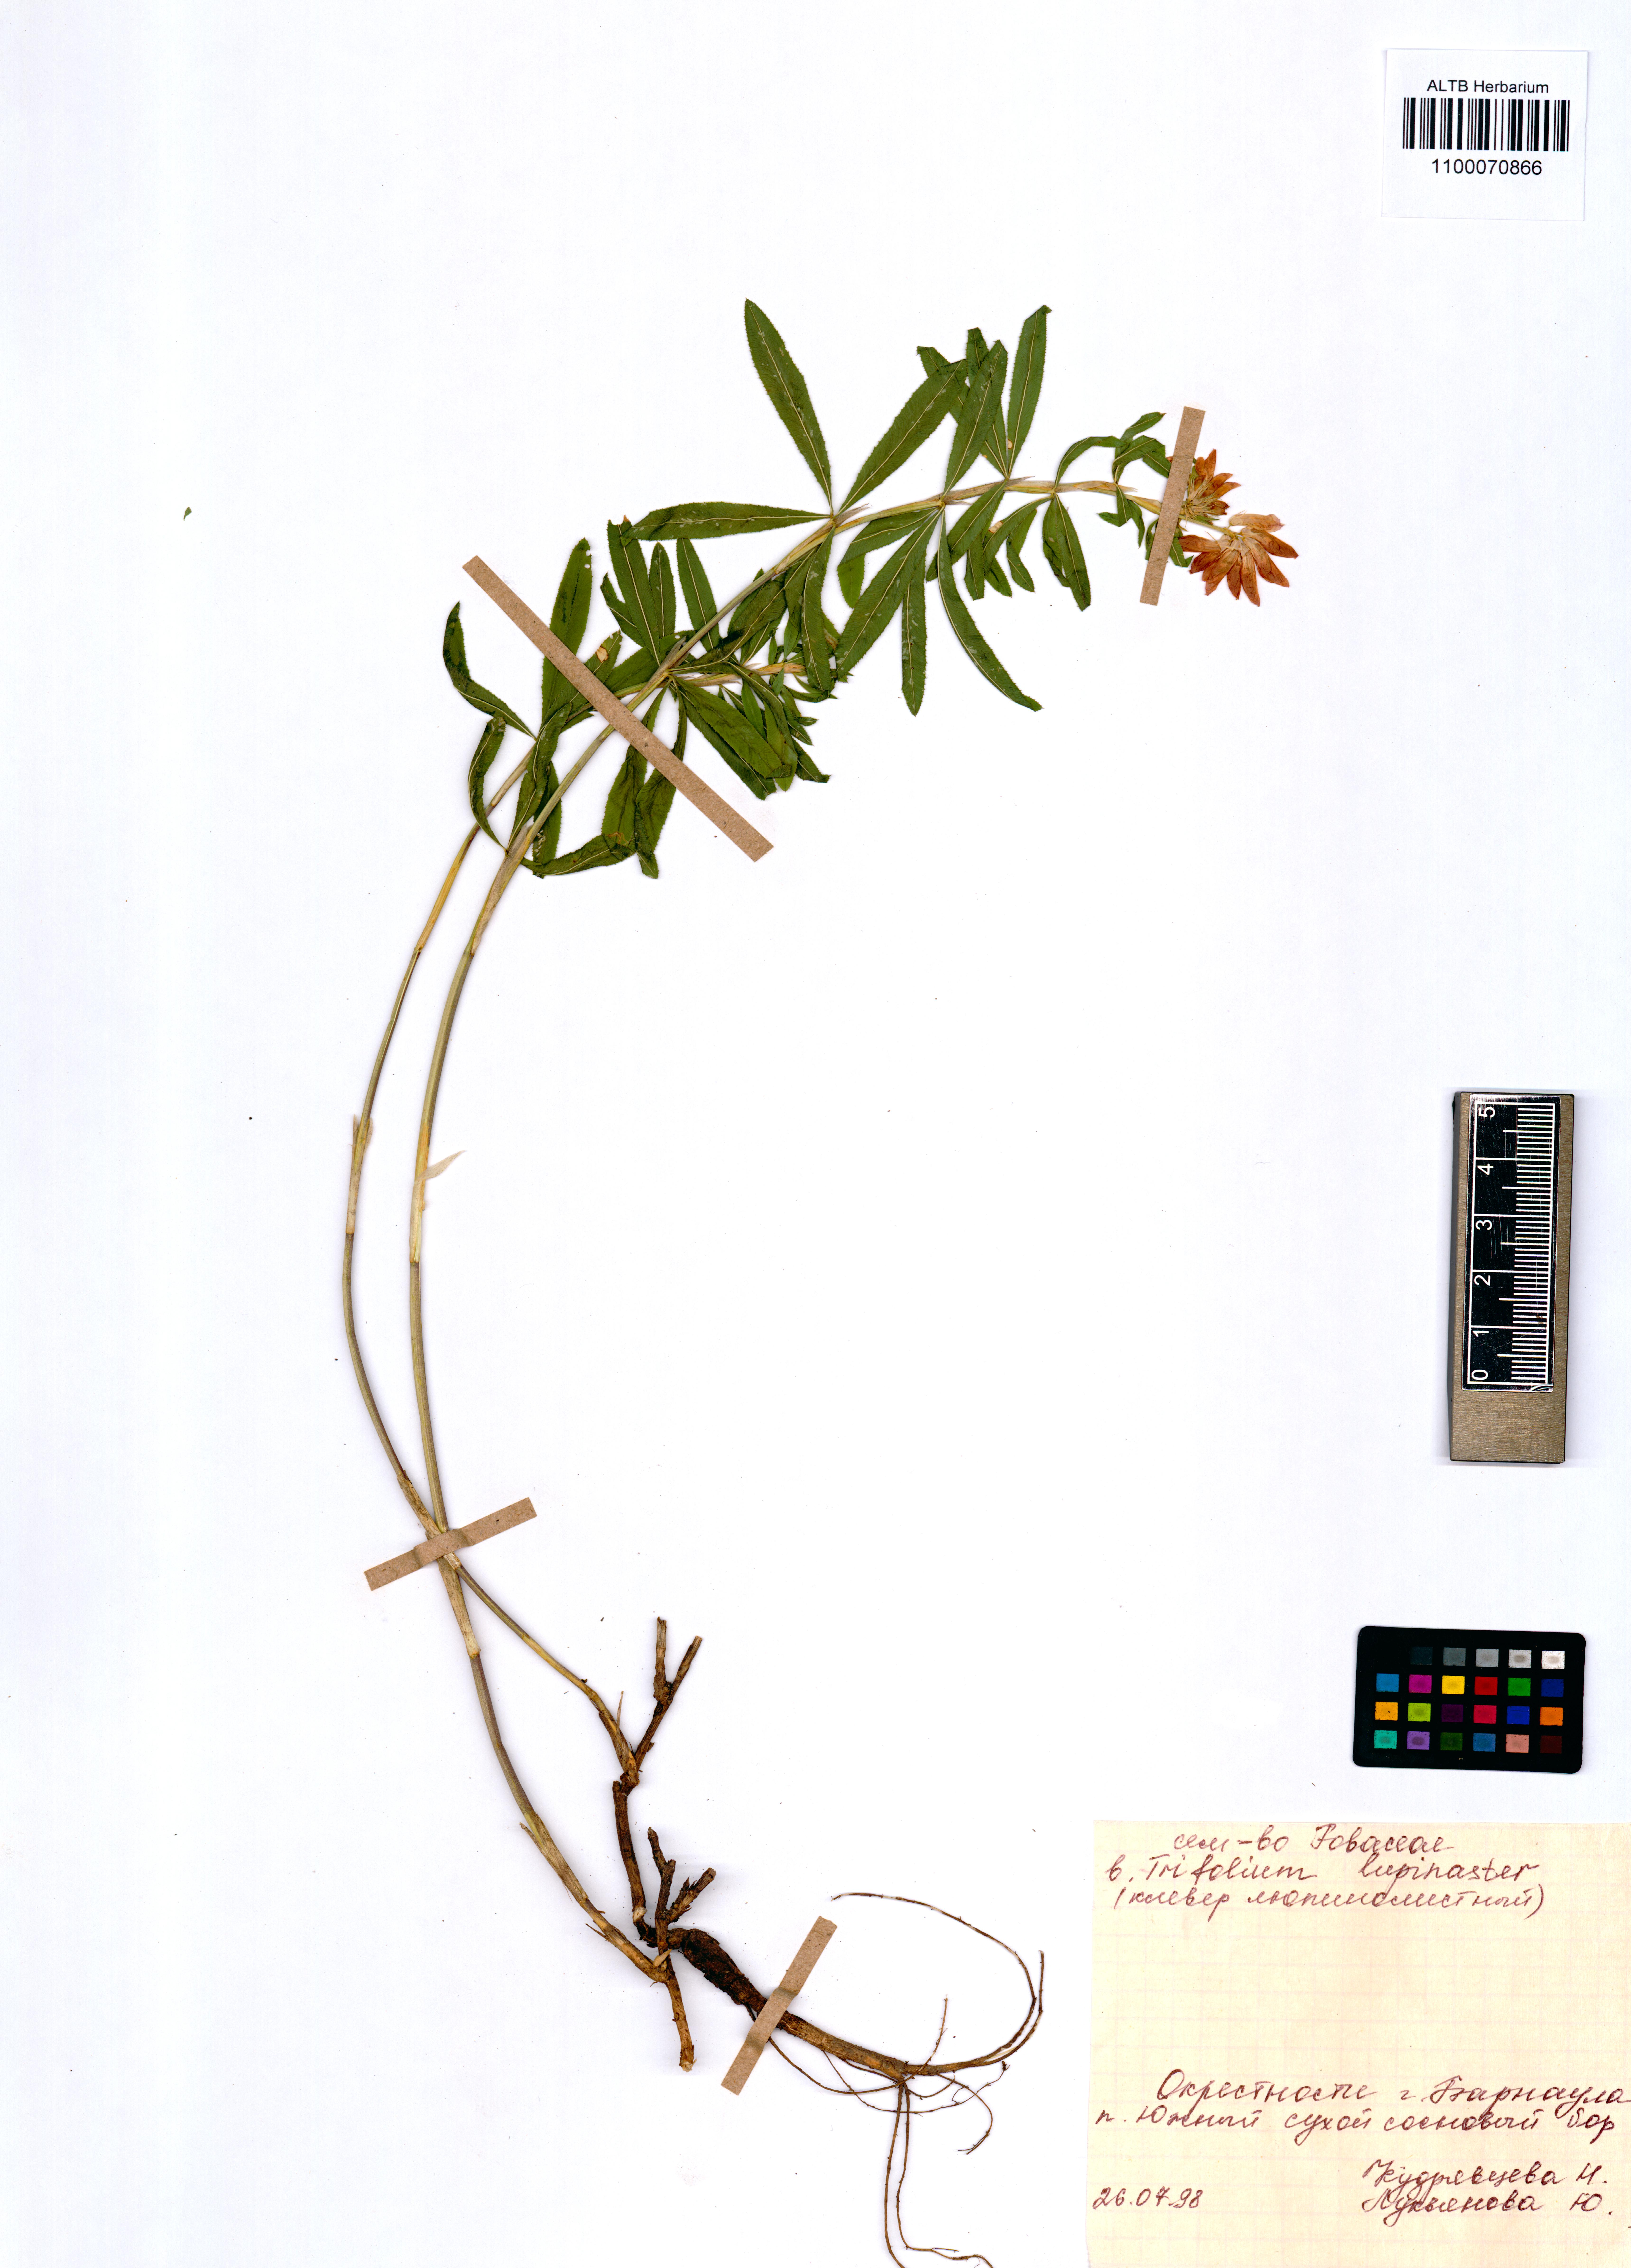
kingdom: Plantae
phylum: Tracheophyta
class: Magnoliopsida
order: Fabales
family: Fabaceae
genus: Trifolium
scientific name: Trifolium lupinaster
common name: Lupine clover
